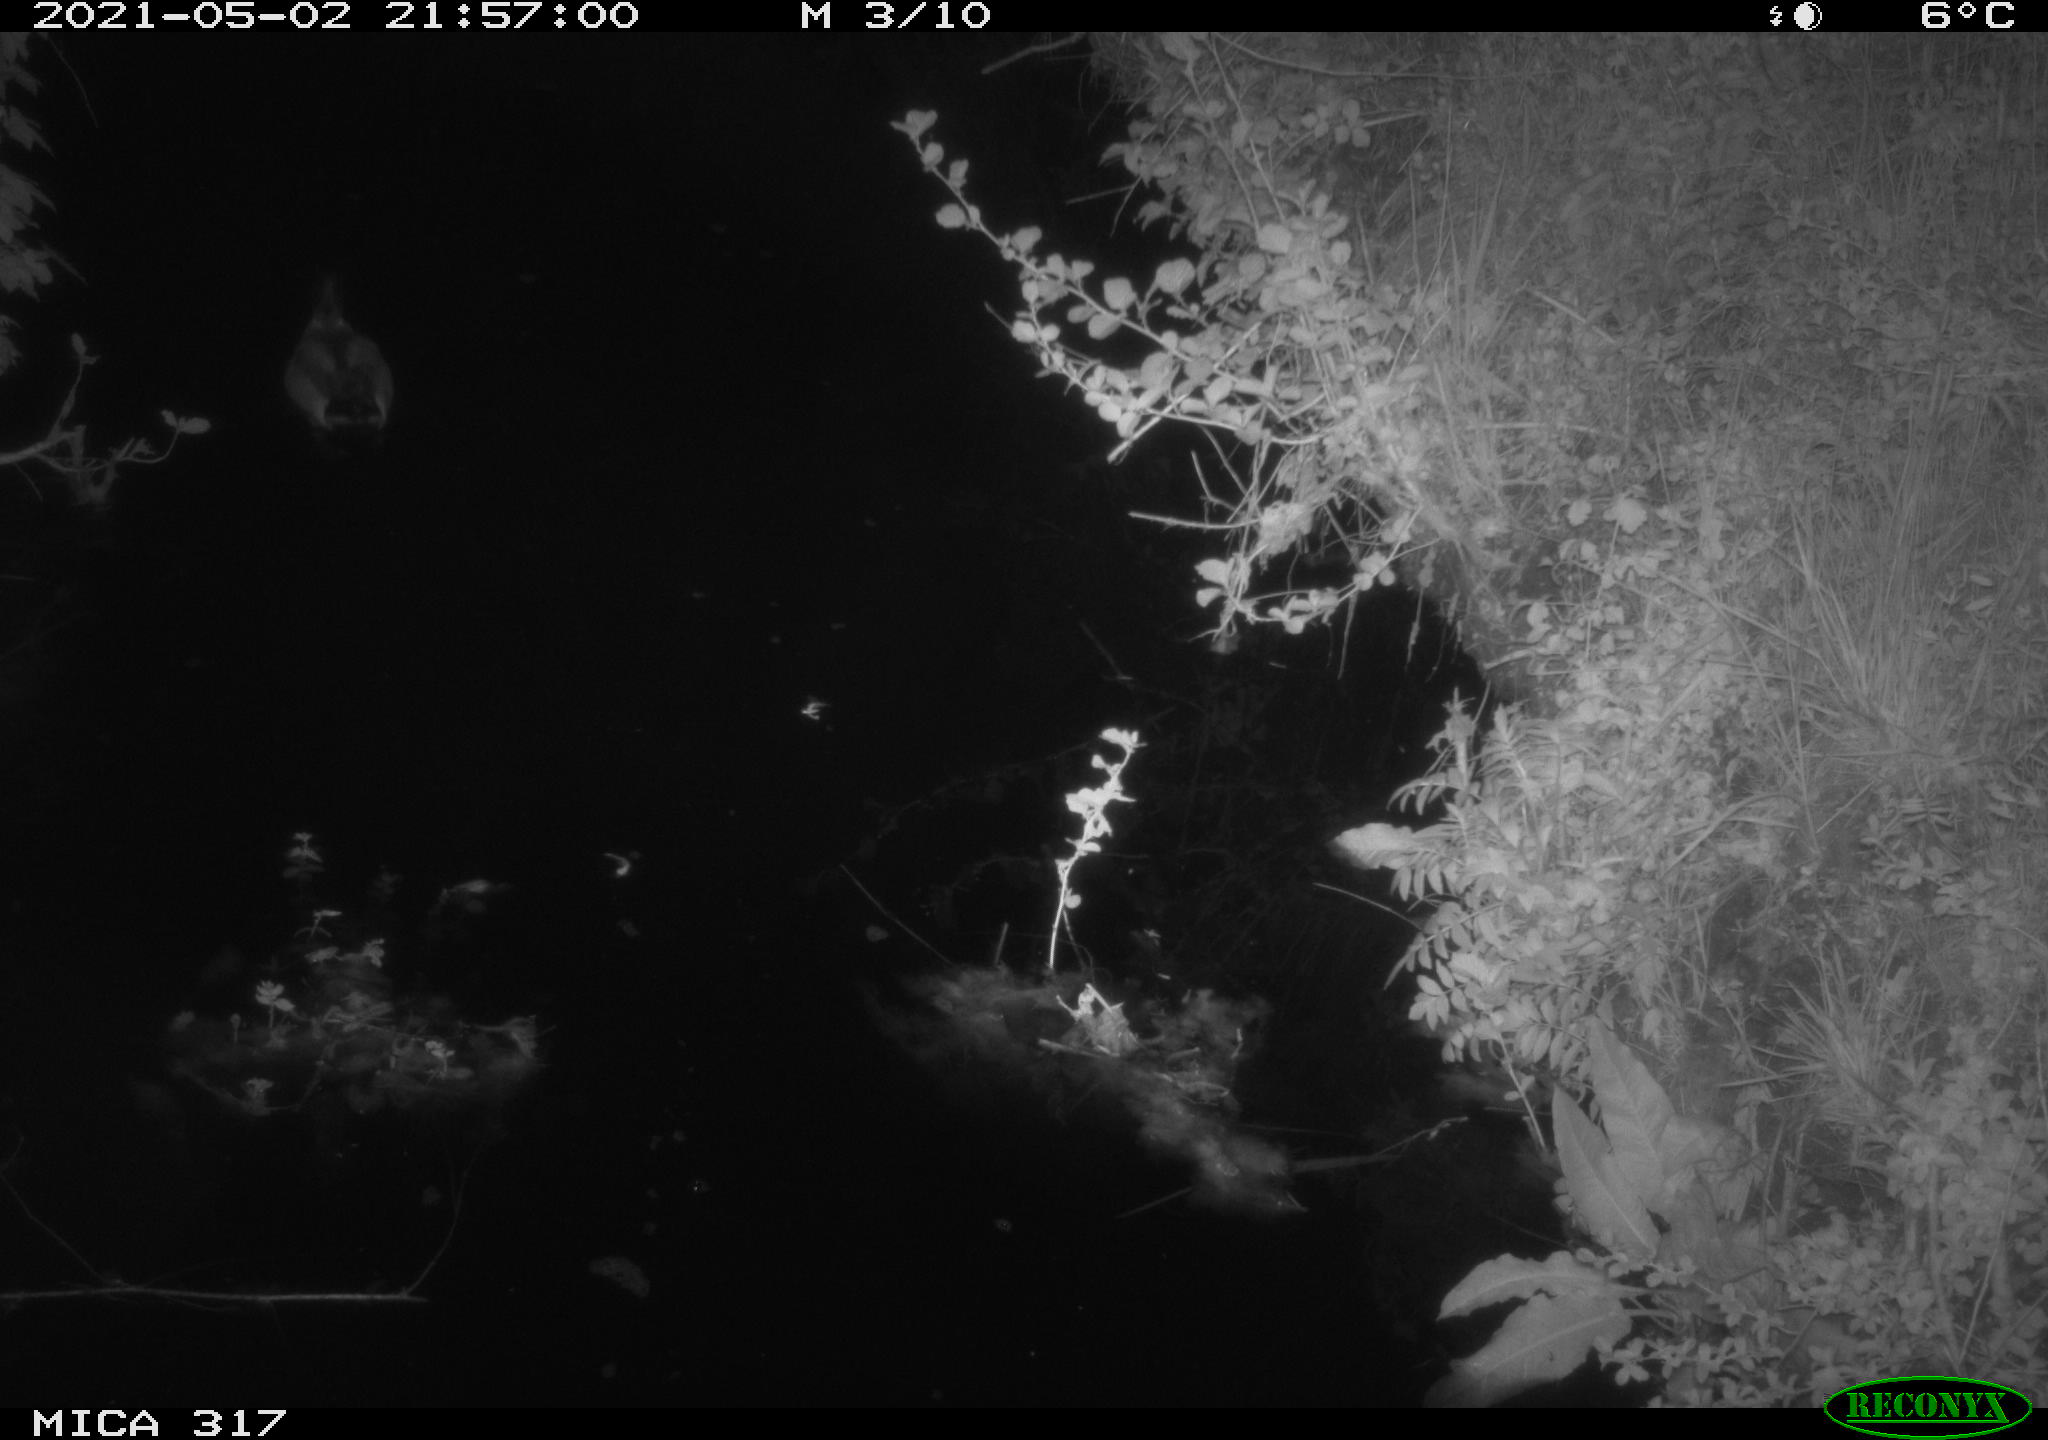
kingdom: Animalia
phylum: Chordata
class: Aves
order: Anseriformes
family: Anatidae
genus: Anas
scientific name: Anas
